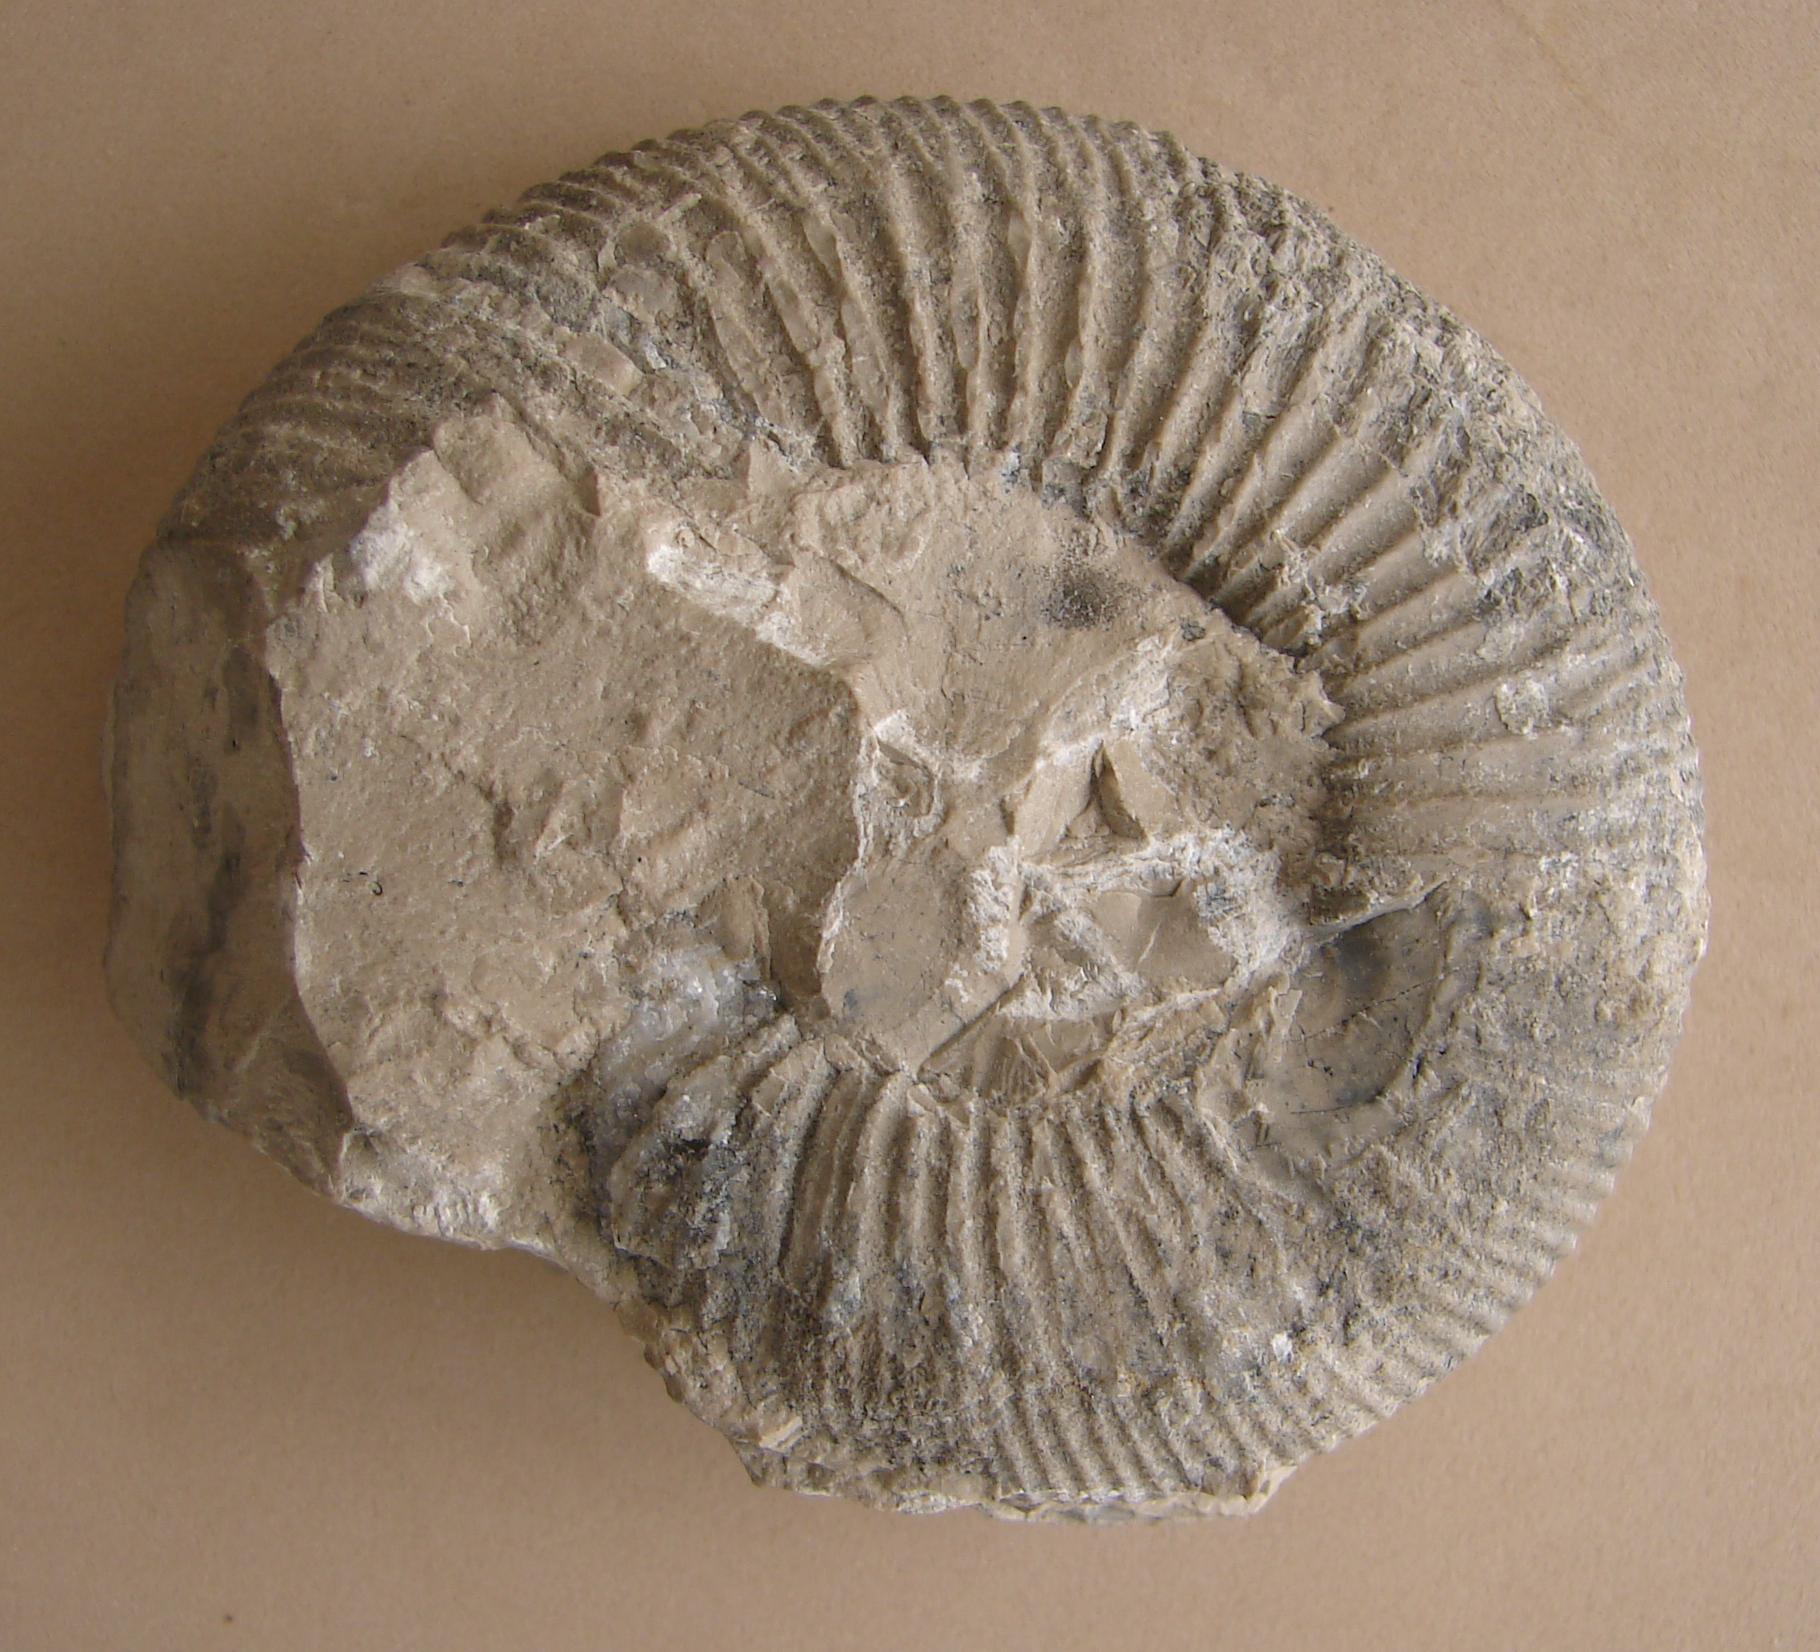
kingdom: Animalia
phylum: Mollusca
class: Cephalopoda
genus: Ammonites
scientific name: Ammonites
